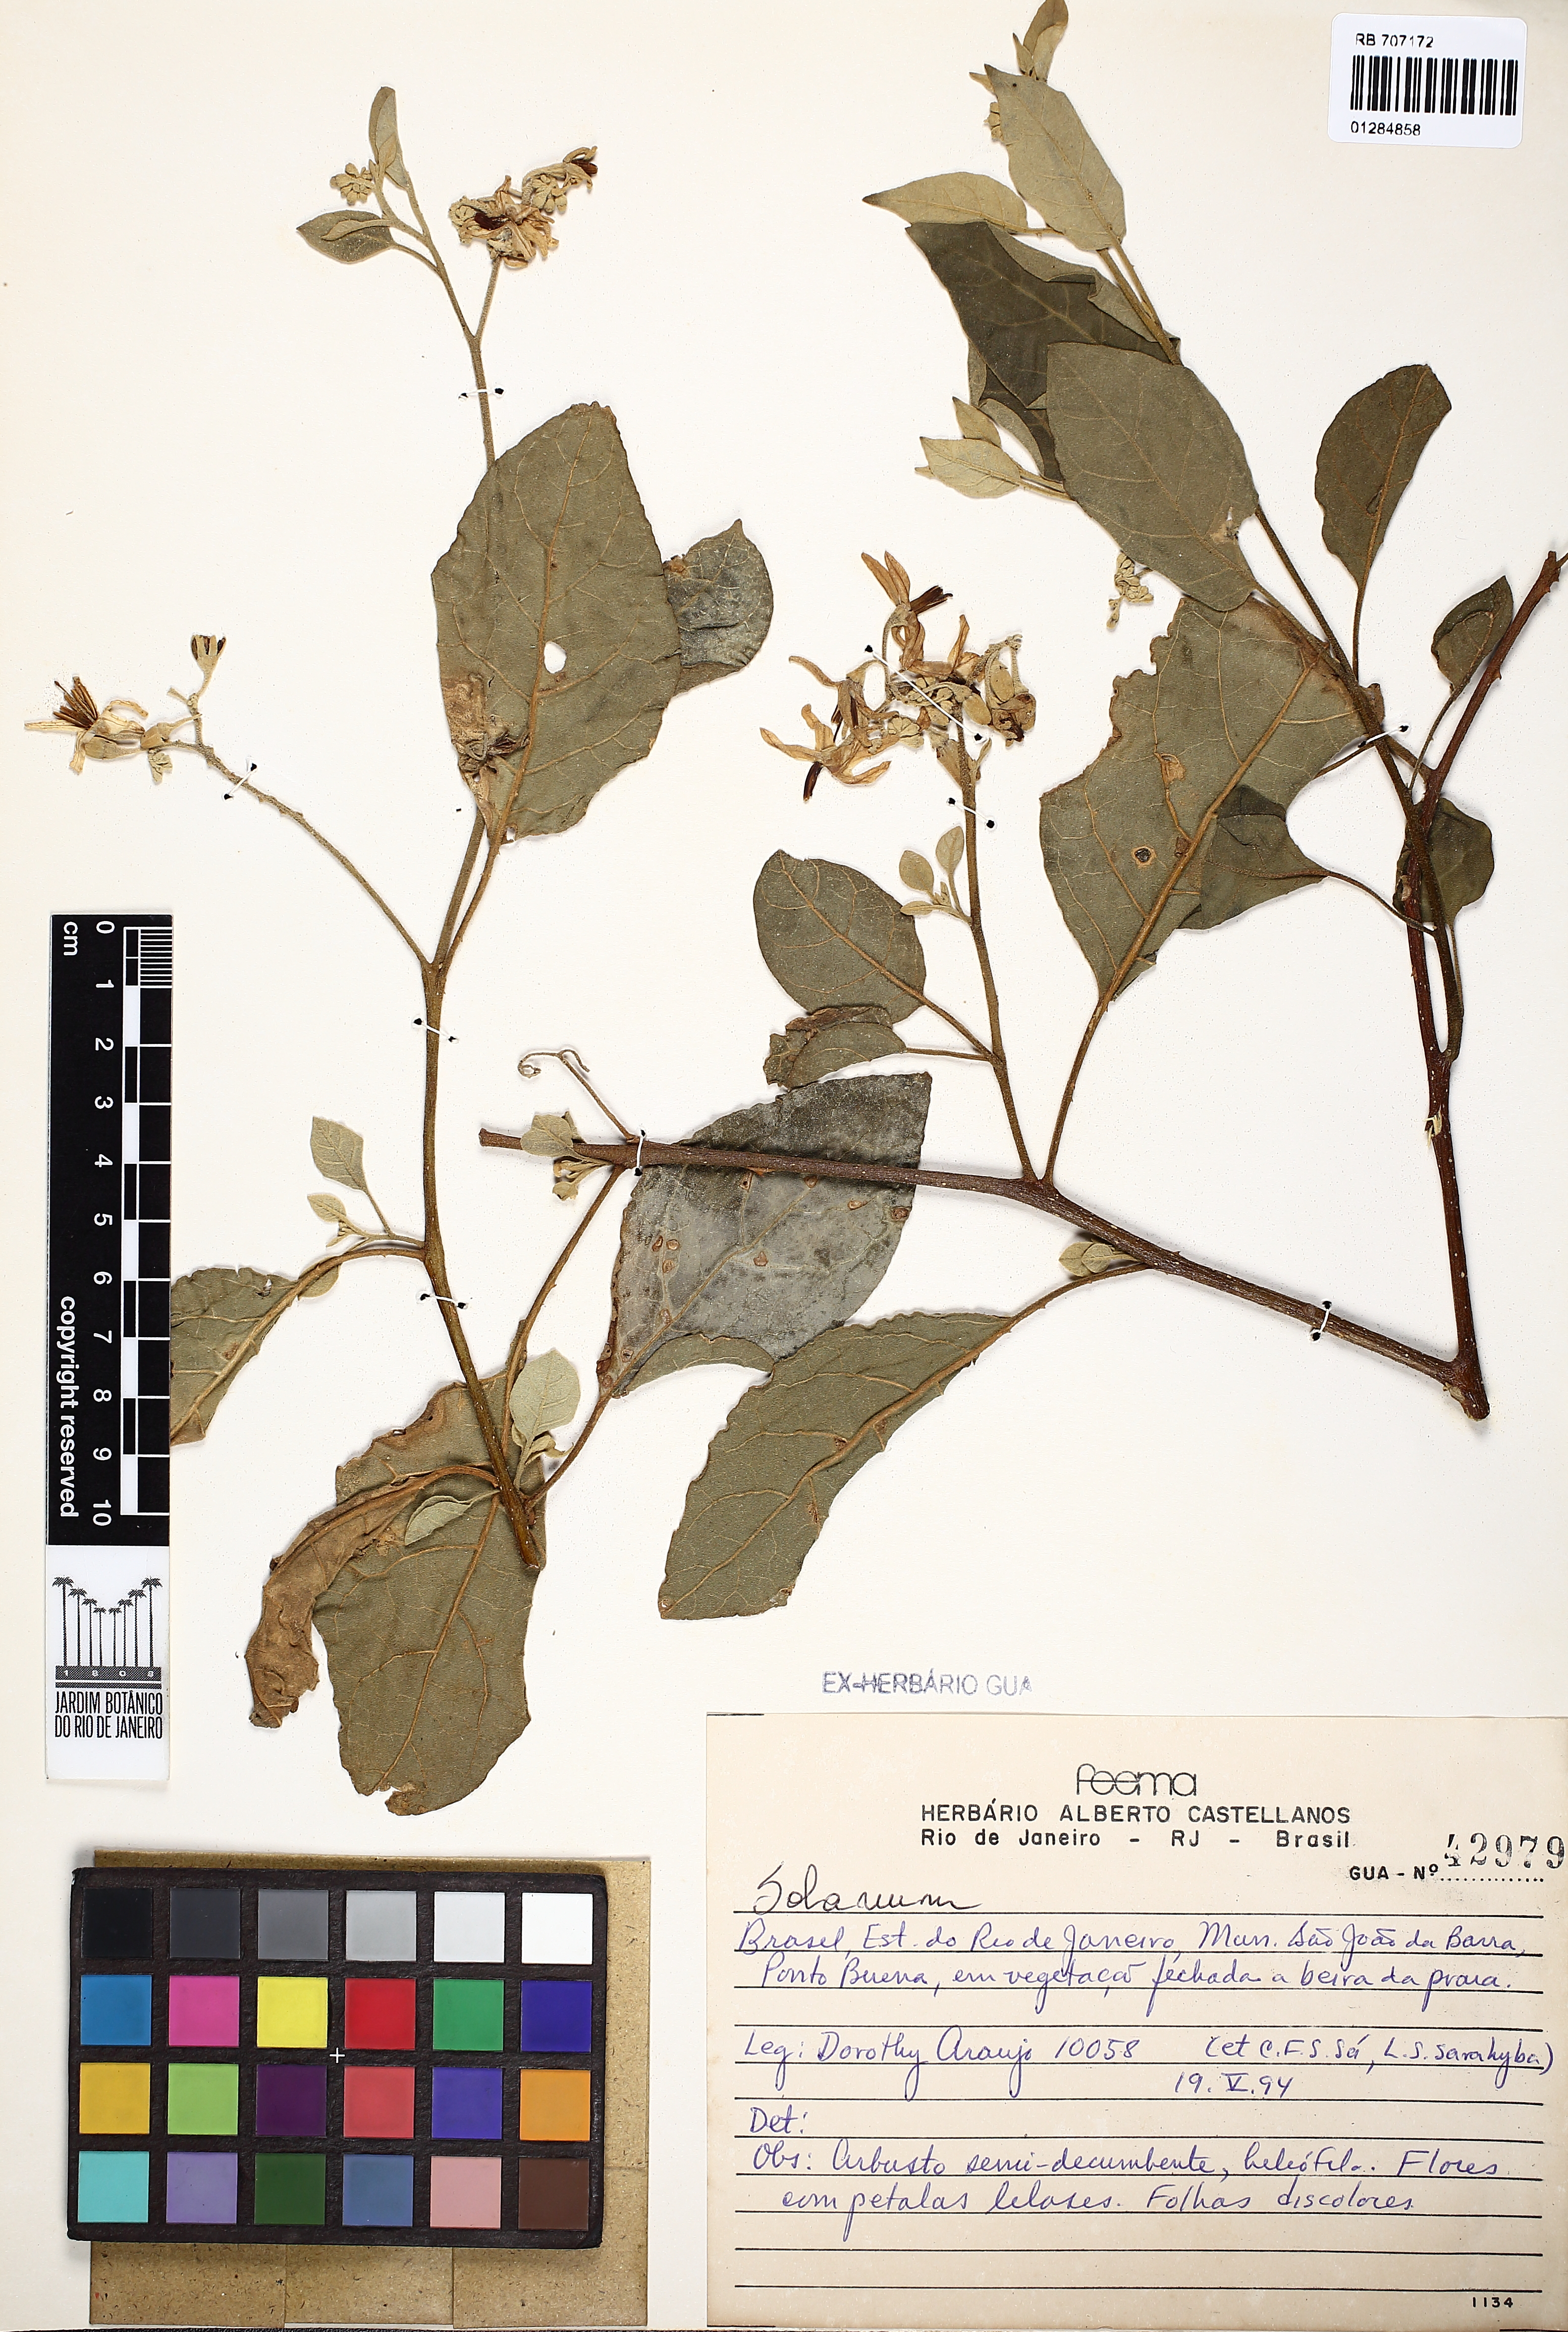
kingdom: Plantae
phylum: Tracheophyta
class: Magnoliopsida
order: Solanales
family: Solanaceae
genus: Solanum
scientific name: Solanum
